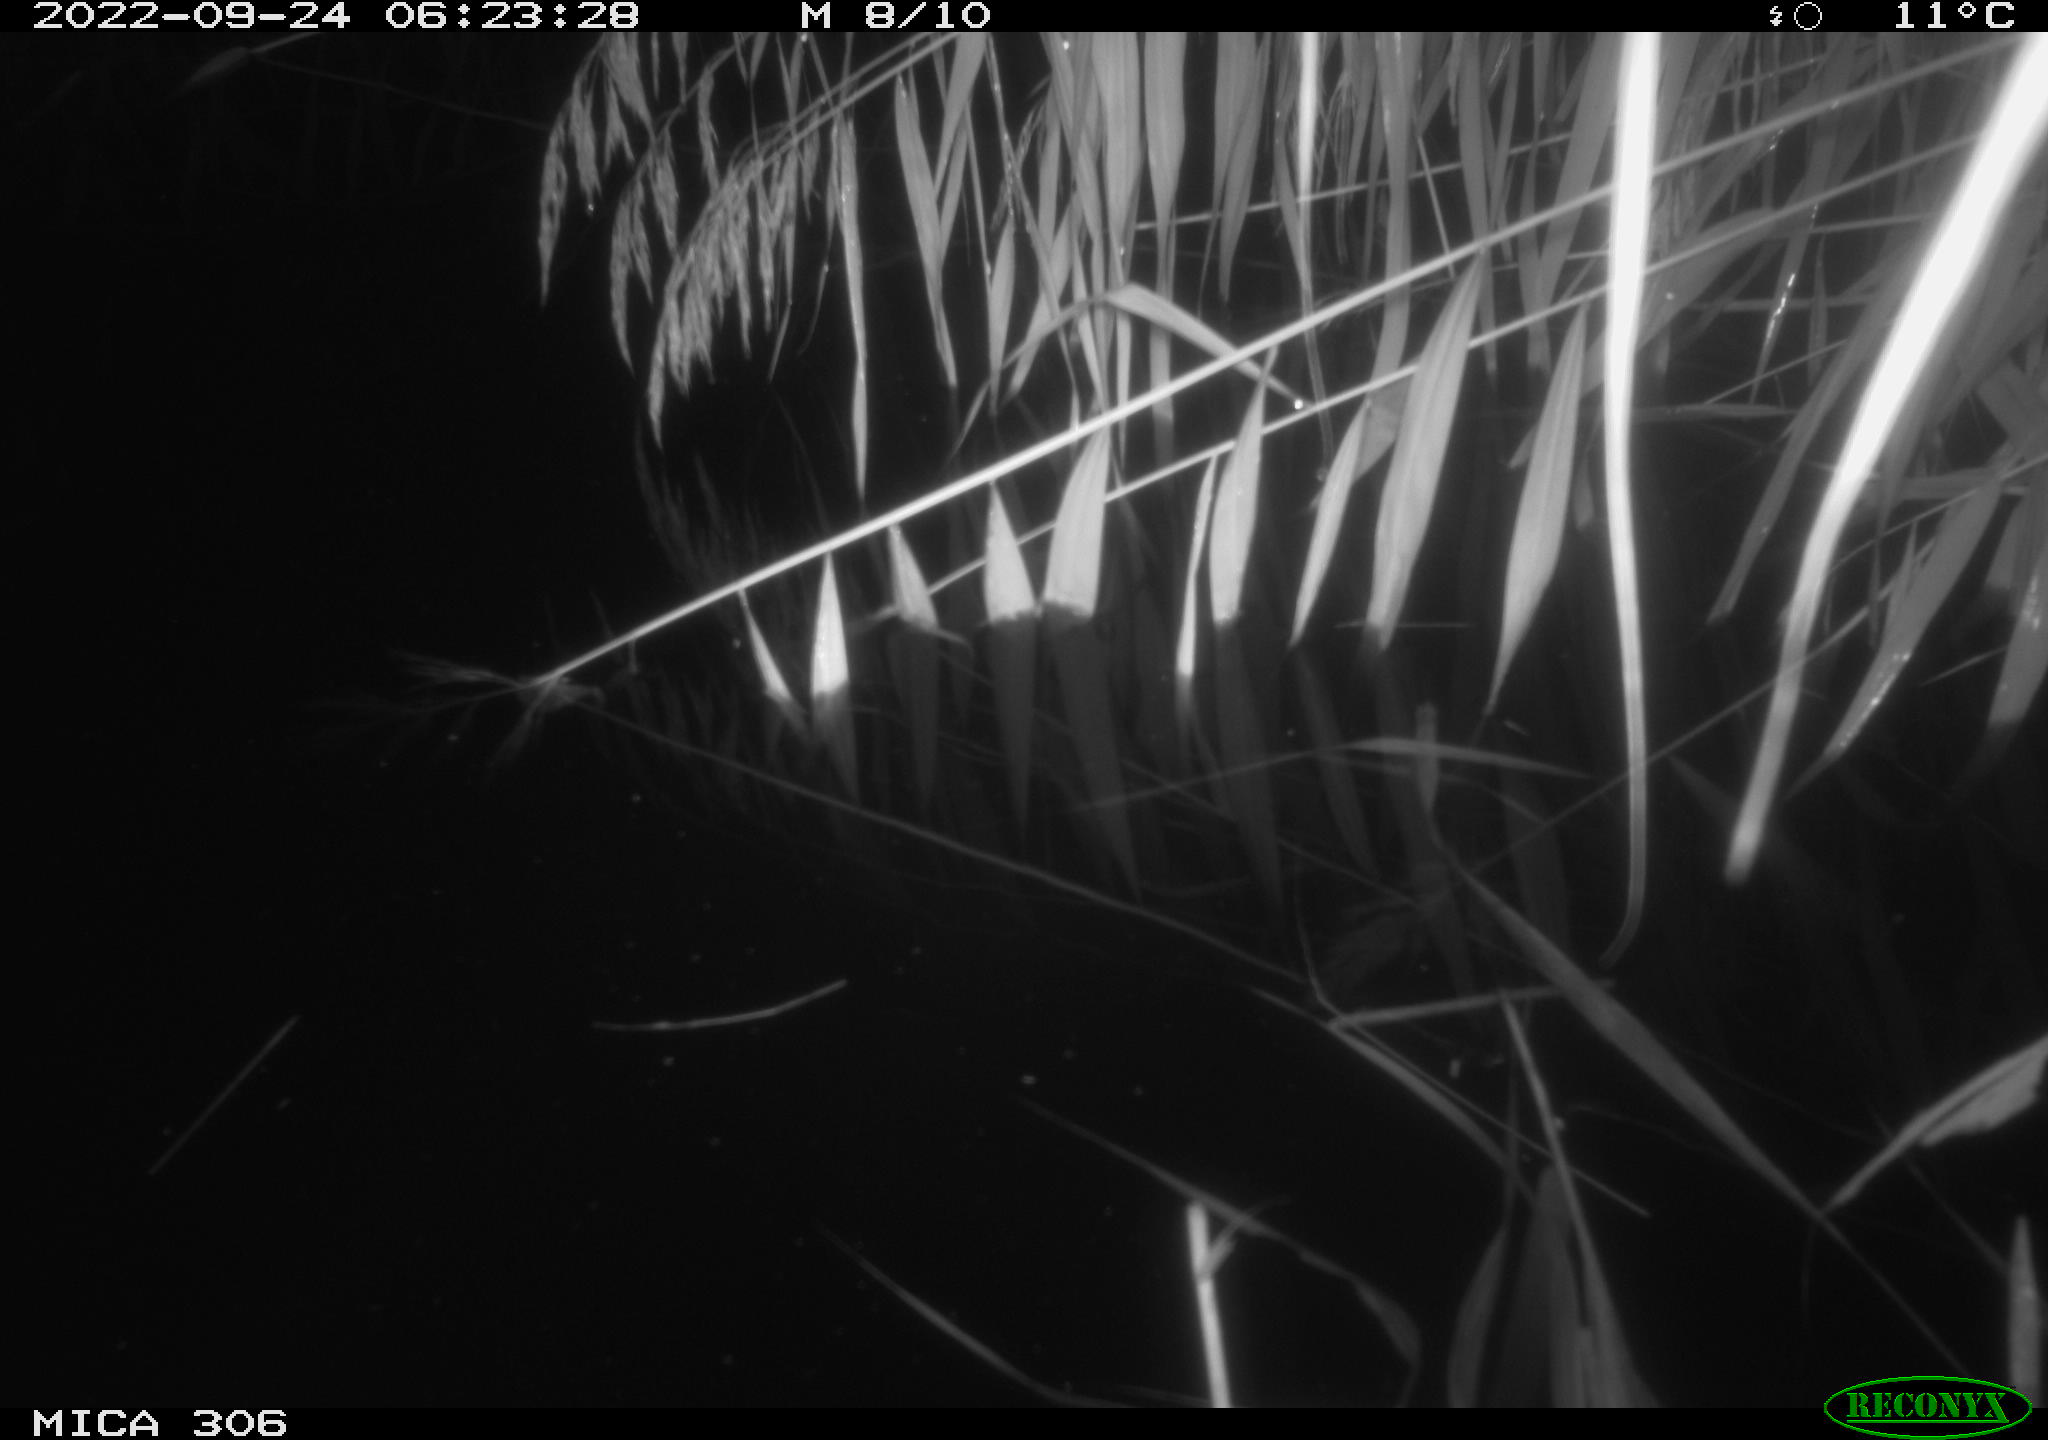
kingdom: Animalia
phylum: Chordata
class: Mammalia
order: Rodentia
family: Muridae
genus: Rattus
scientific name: Rattus norvegicus
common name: Brown rat
